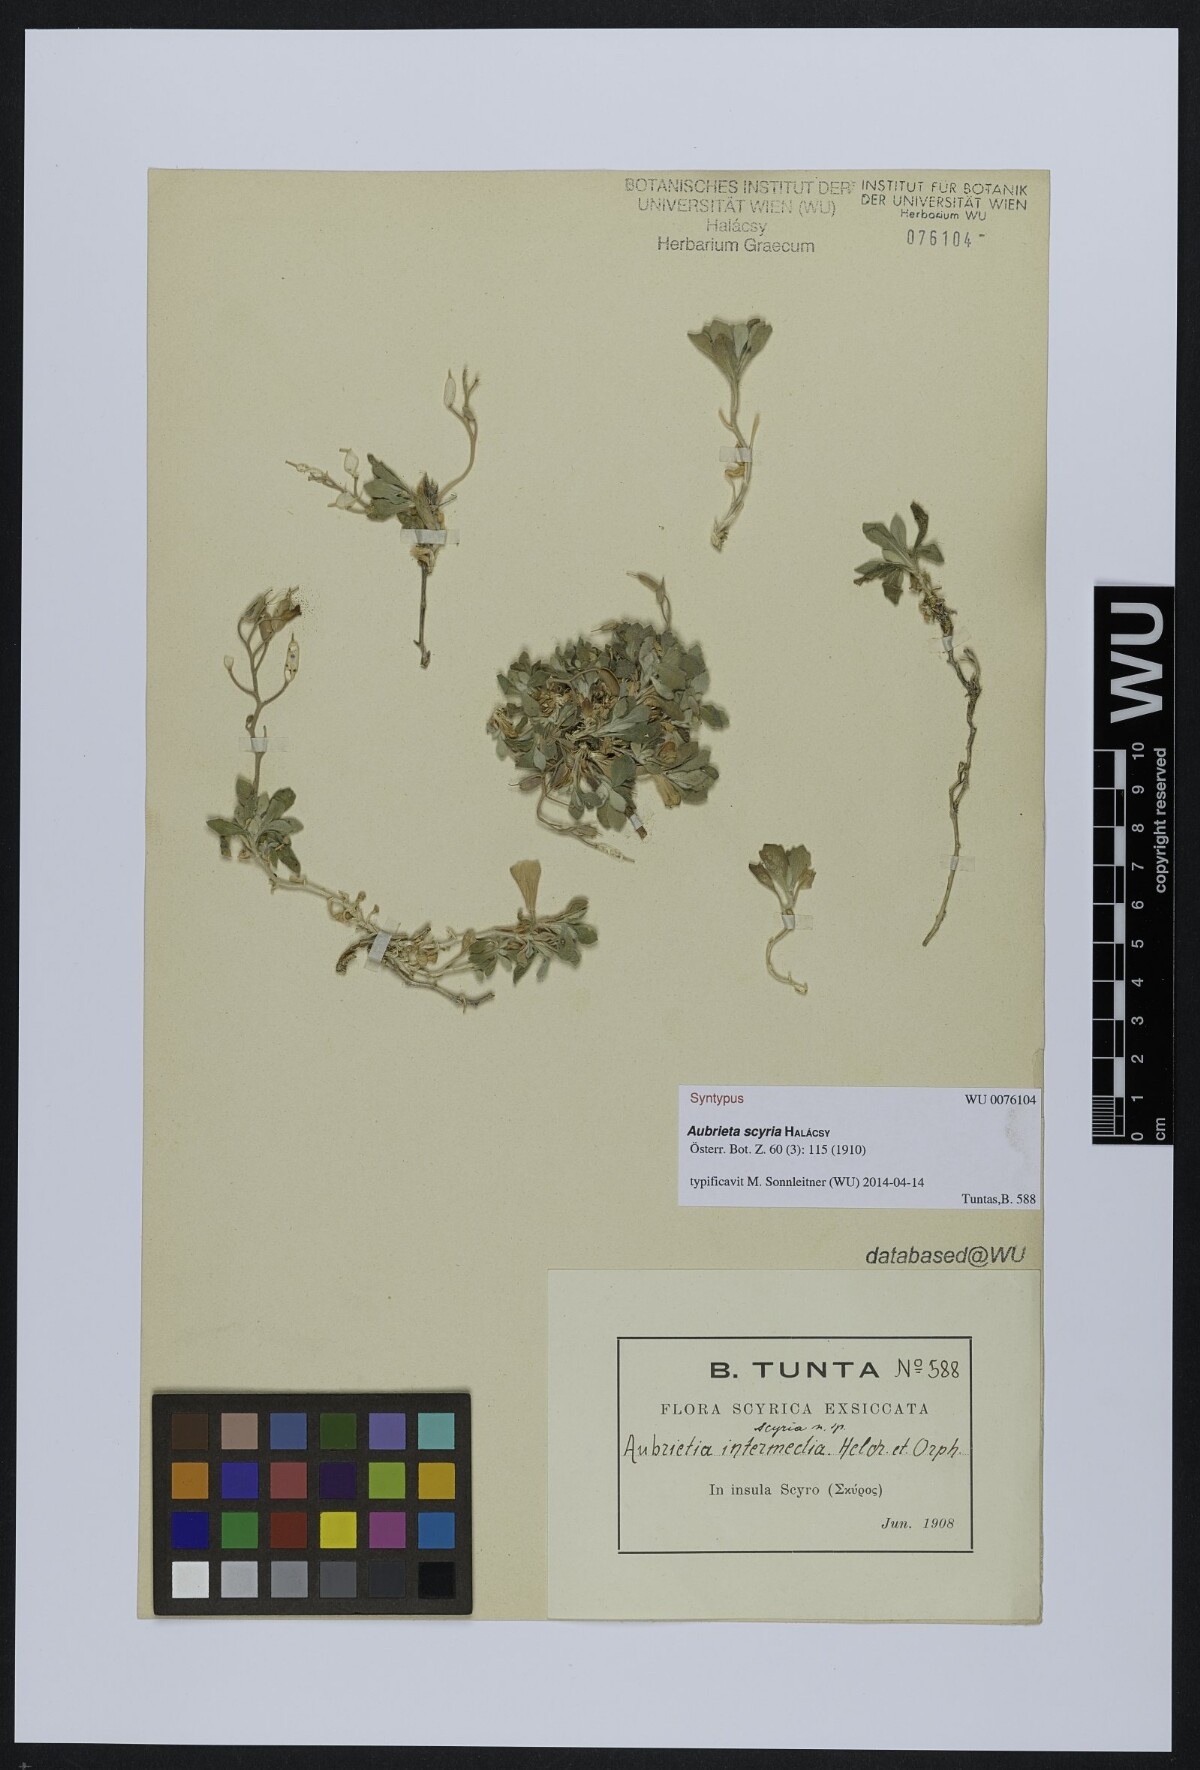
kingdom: Plantae
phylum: Tracheophyta
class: Magnoliopsida
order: Brassicales
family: Brassicaceae
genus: Aubrieta
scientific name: Aubrieta scyria
